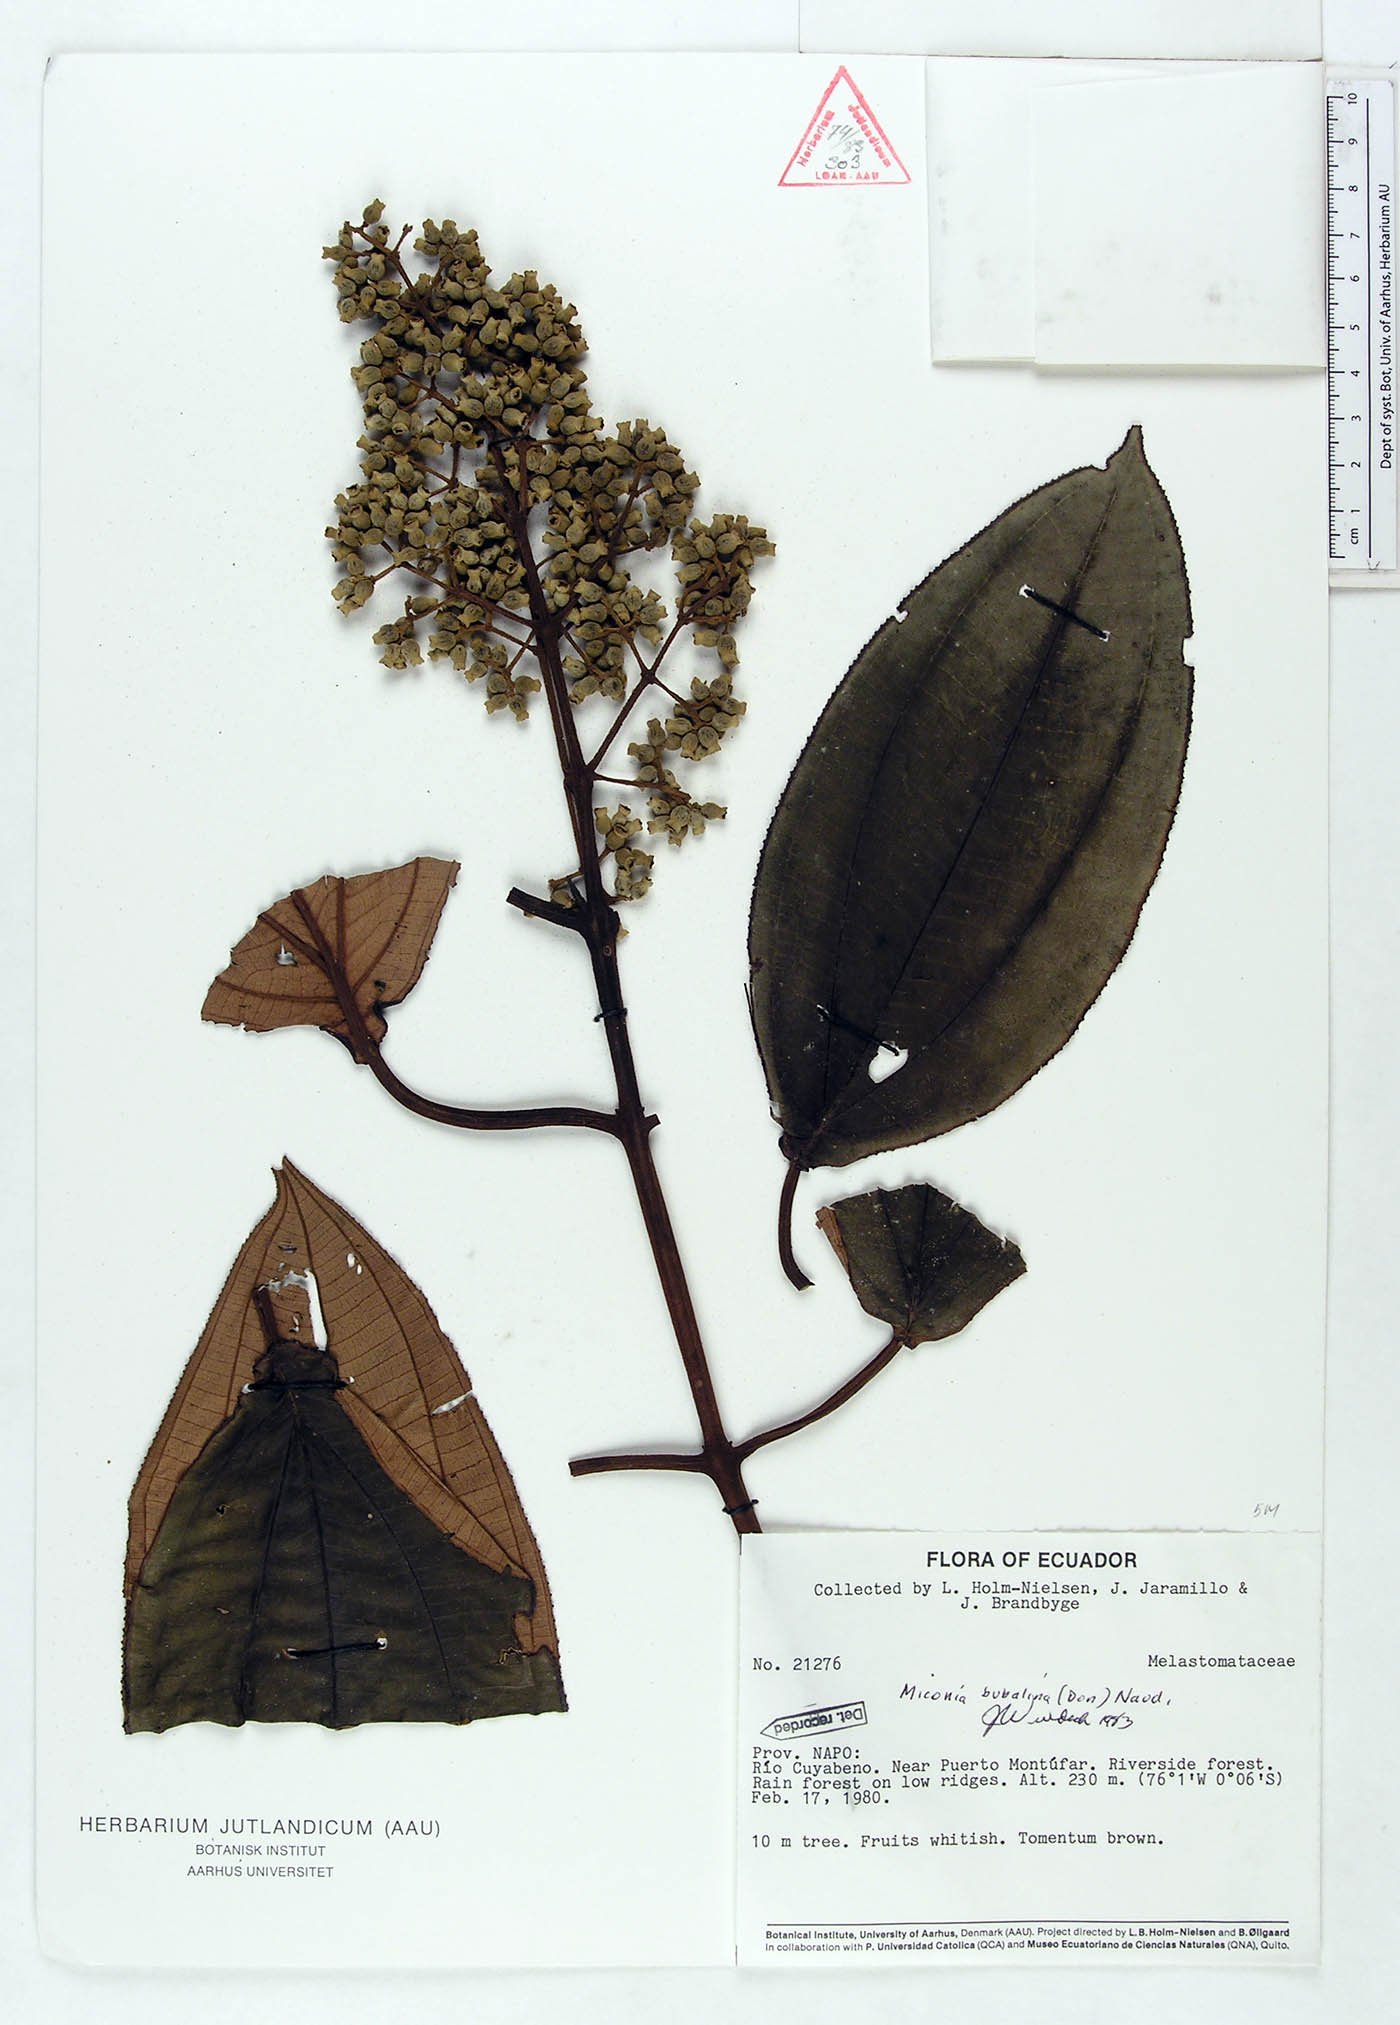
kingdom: Plantae
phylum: Tracheophyta
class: Magnoliopsida
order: Myrtales
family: Melastomataceae
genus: Miconia
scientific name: Miconia bubalina
